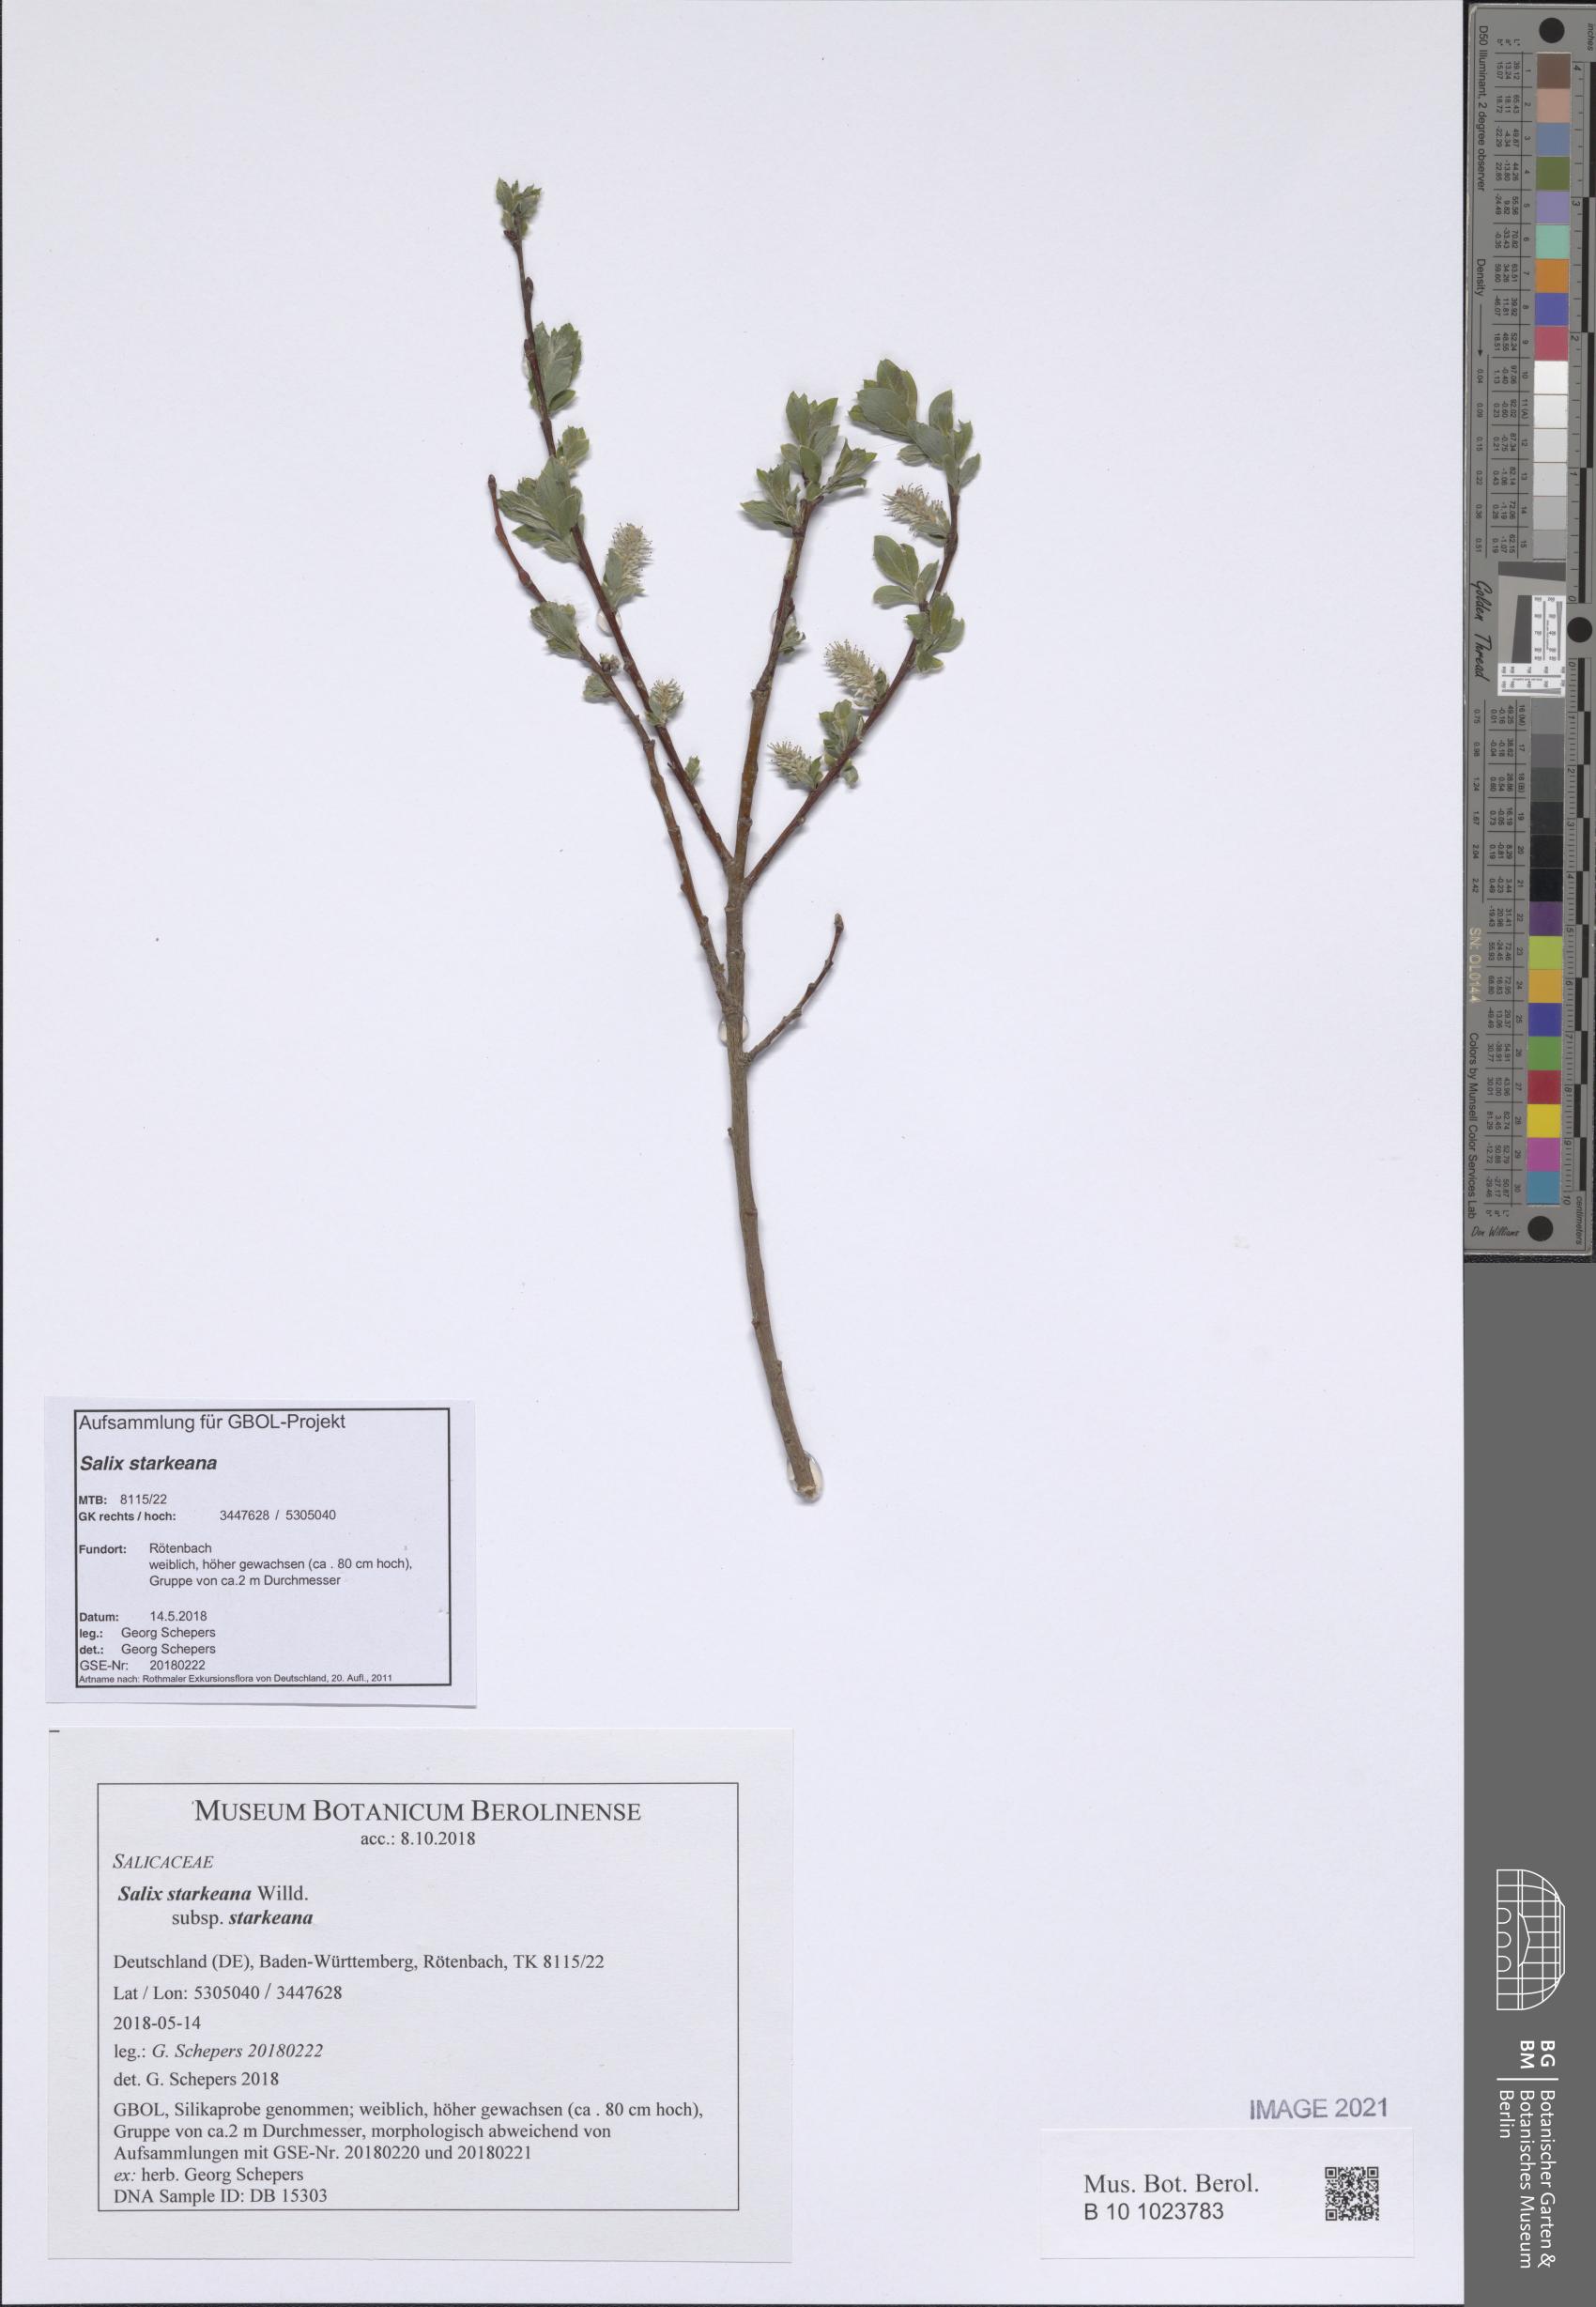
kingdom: Plantae
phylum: Tracheophyta
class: Magnoliopsida
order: Malpighiales
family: Salicaceae
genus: Salix
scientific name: Salix starkeana
